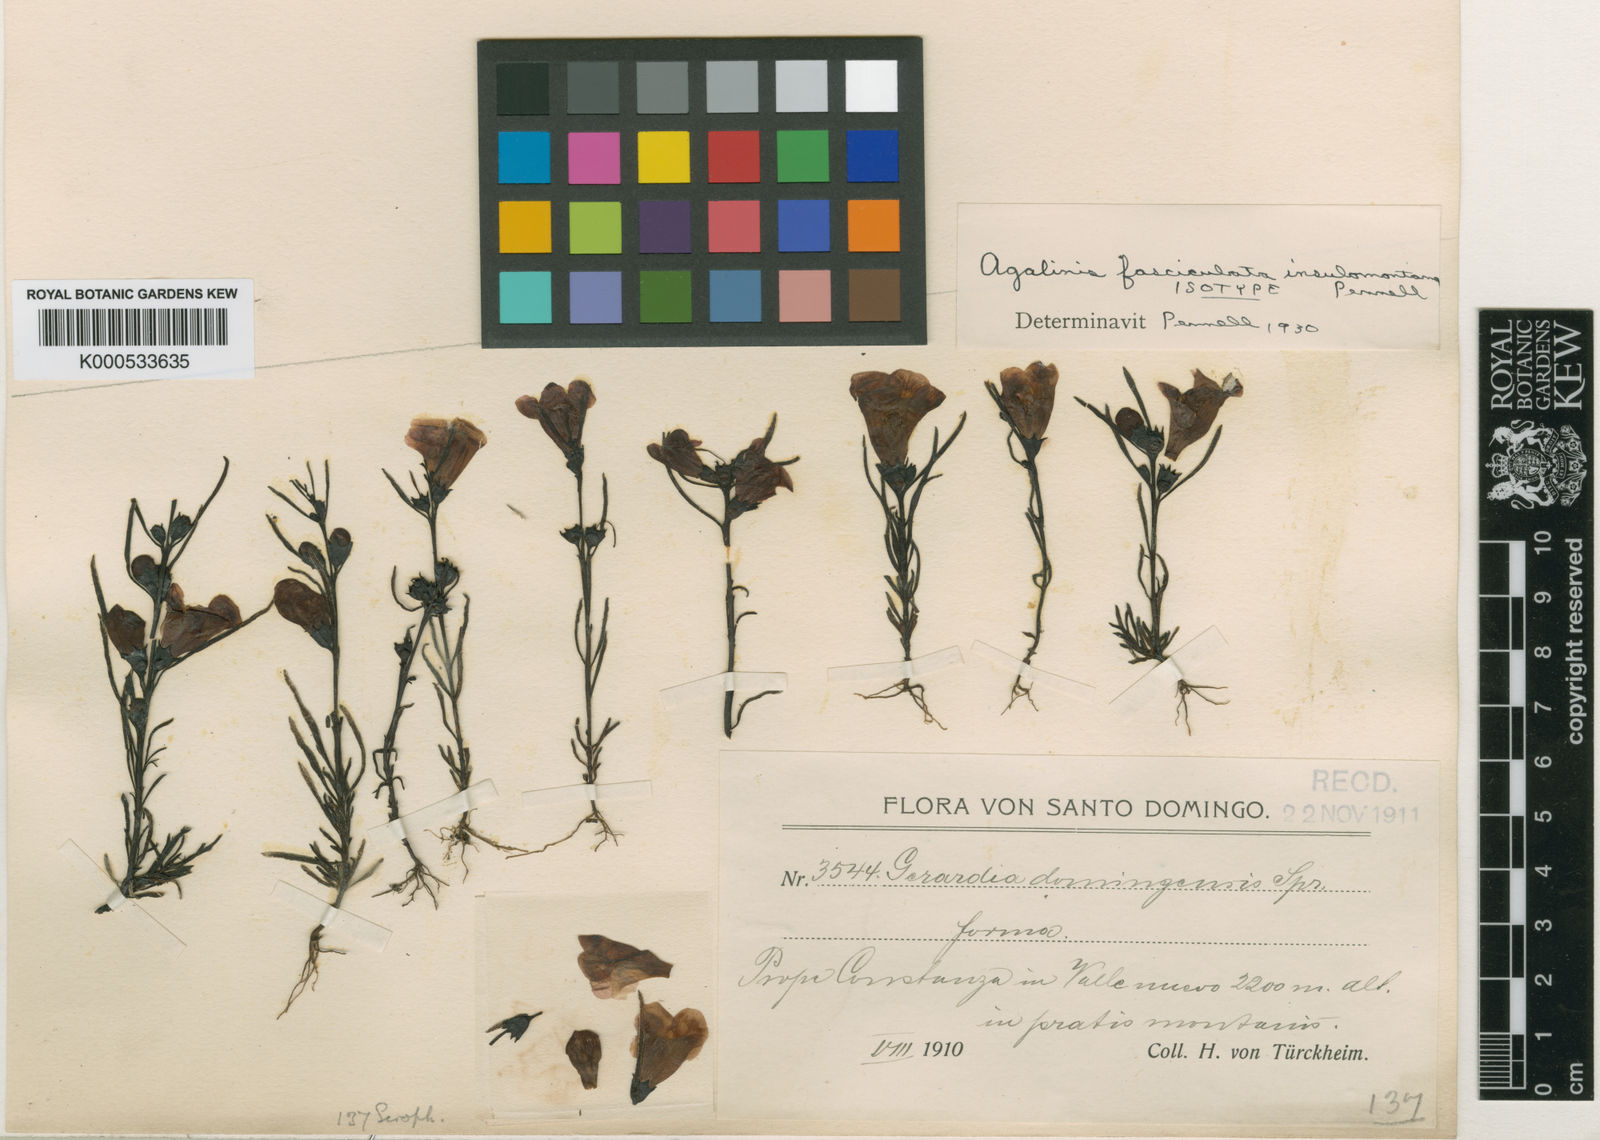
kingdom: Plantae
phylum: Tracheophyta
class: Magnoliopsida
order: Lamiales
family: Orobanchaceae
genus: Agalinis
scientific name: Agalinis fasciculata
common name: Beach false foxglove
